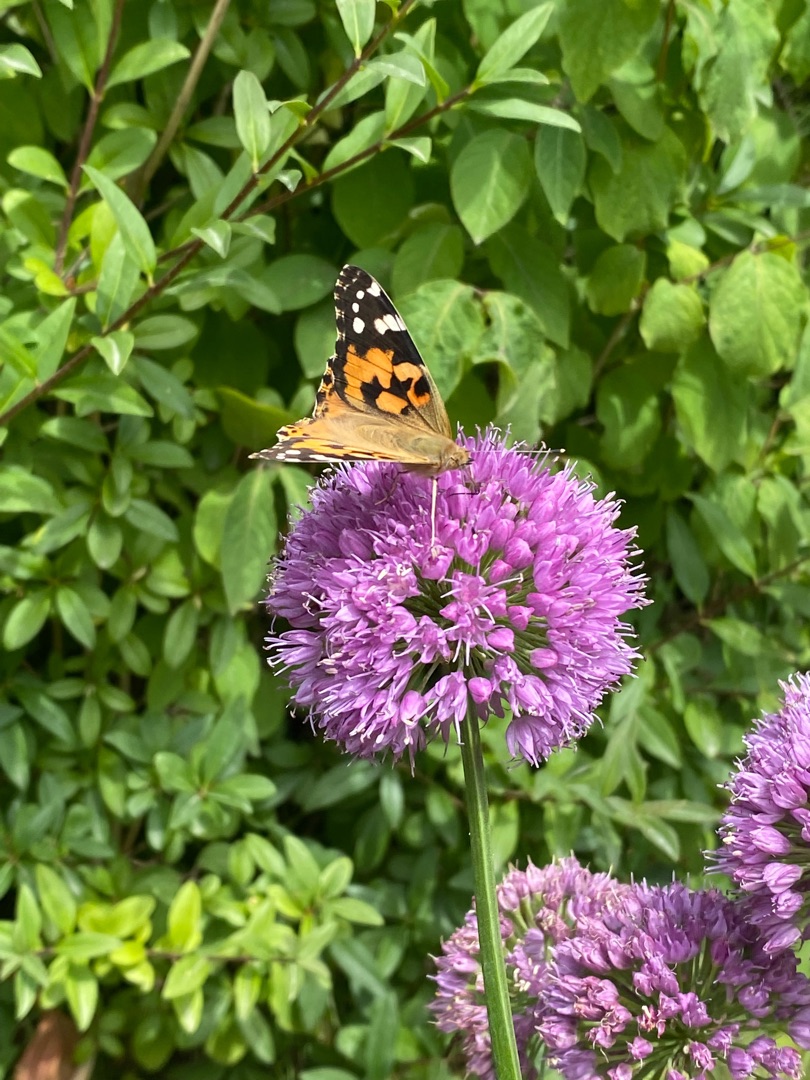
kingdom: Animalia
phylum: Arthropoda
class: Insecta
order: Lepidoptera
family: Nymphalidae
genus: Vanessa
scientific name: Vanessa cardui
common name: Tidselsommerfugl
